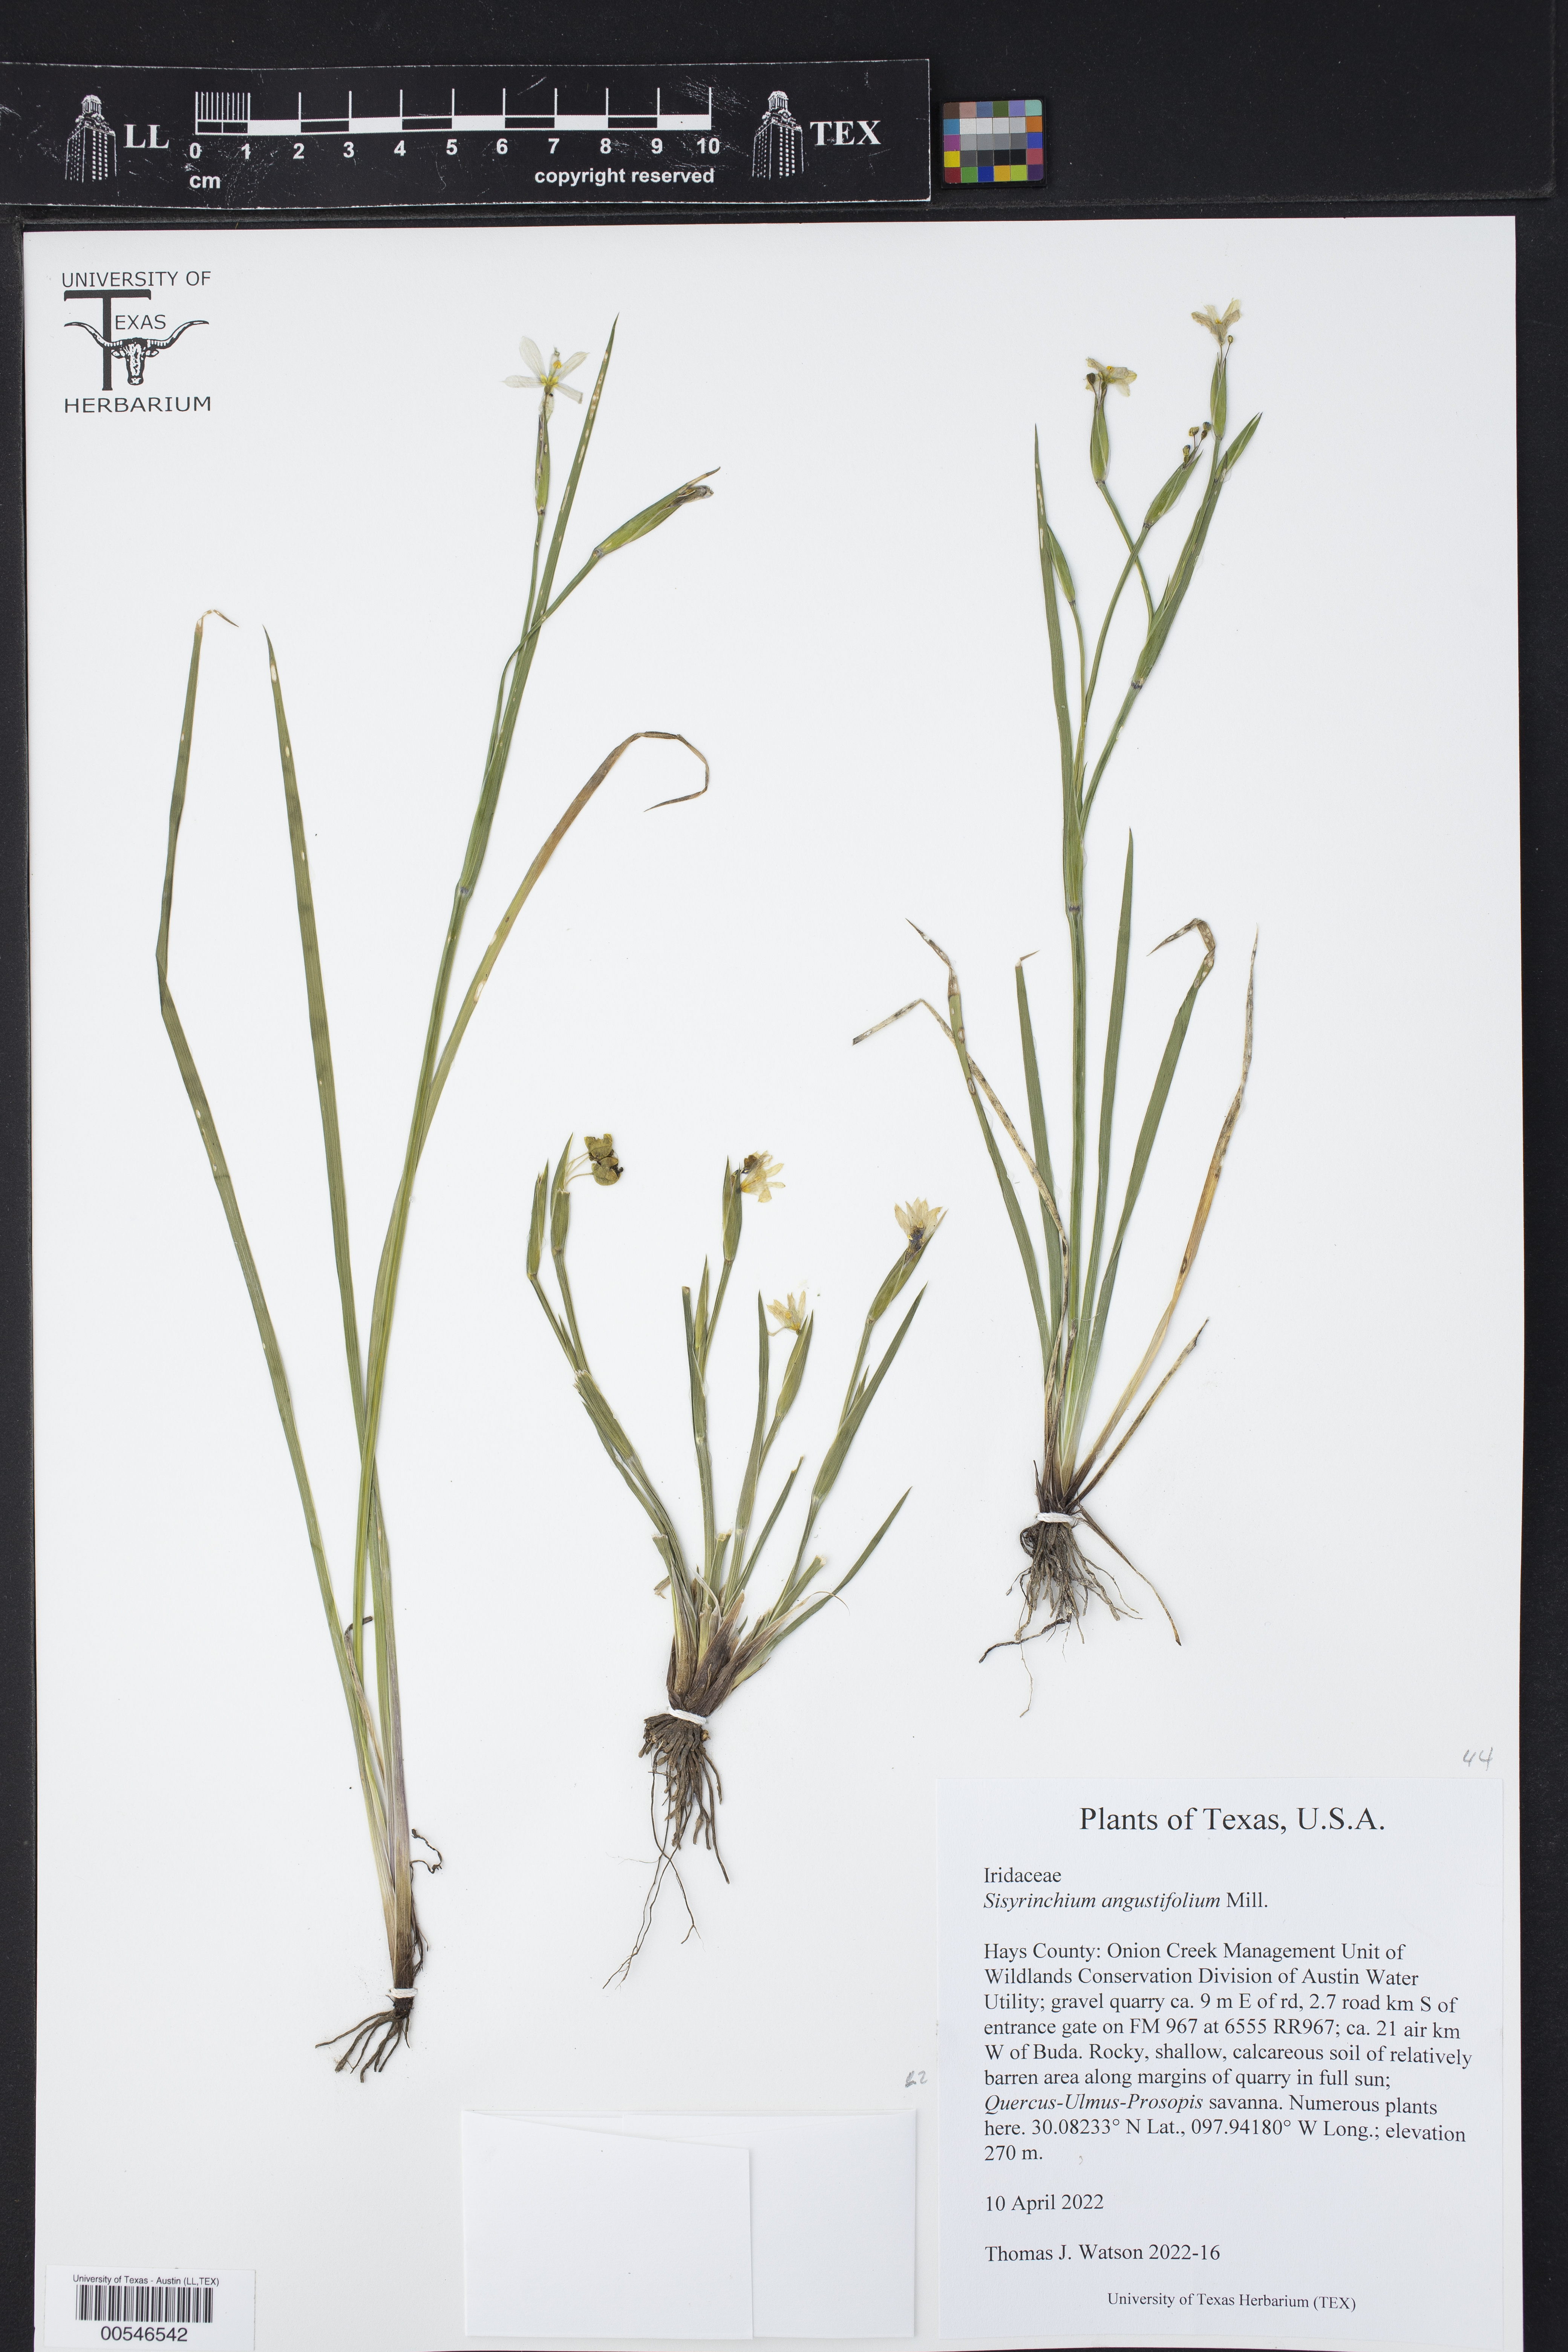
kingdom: Plantae
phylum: Tracheophyta
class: Liliopsida
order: Asparagales
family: Iridaceae
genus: Sisyrinchium
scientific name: Sisyrinchium angustifolium
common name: Narrow-leaf blue-eyed-grass
